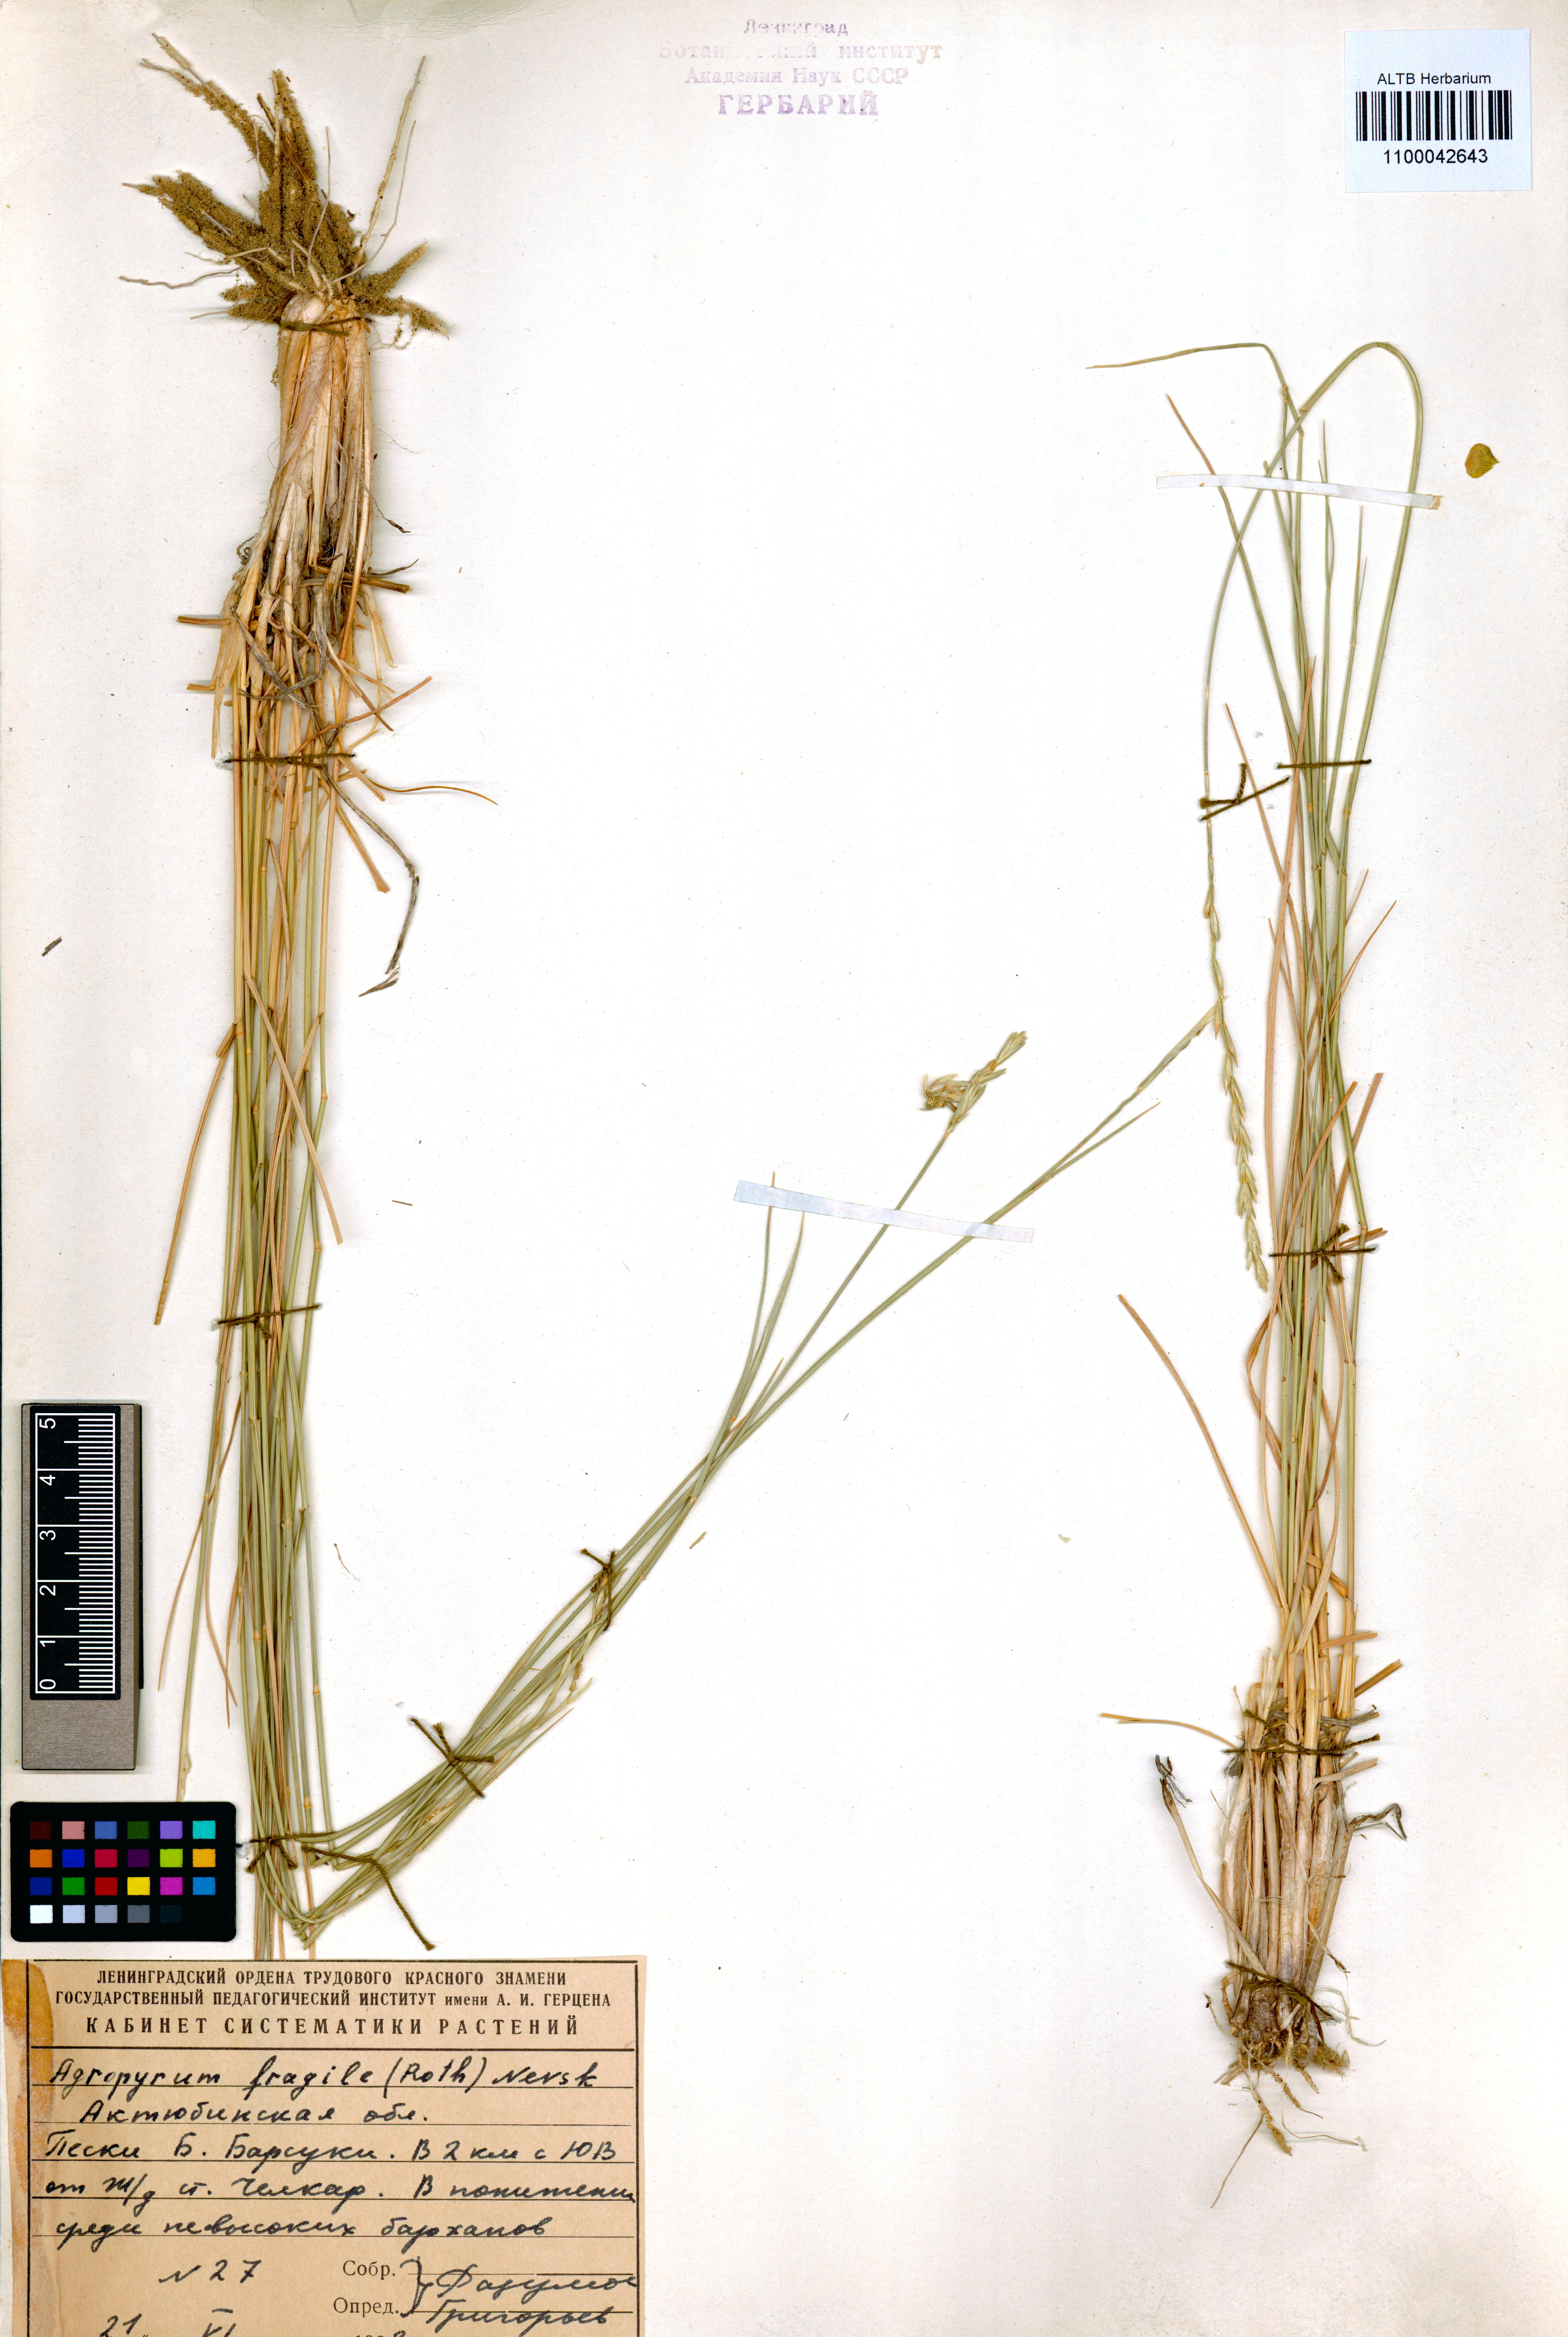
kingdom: Plantae
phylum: Tracheophyta
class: Liliopsida
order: Poales
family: Poaceae
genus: Agropyron
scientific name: Agropyron fragile
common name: Siberian wheatgrass
